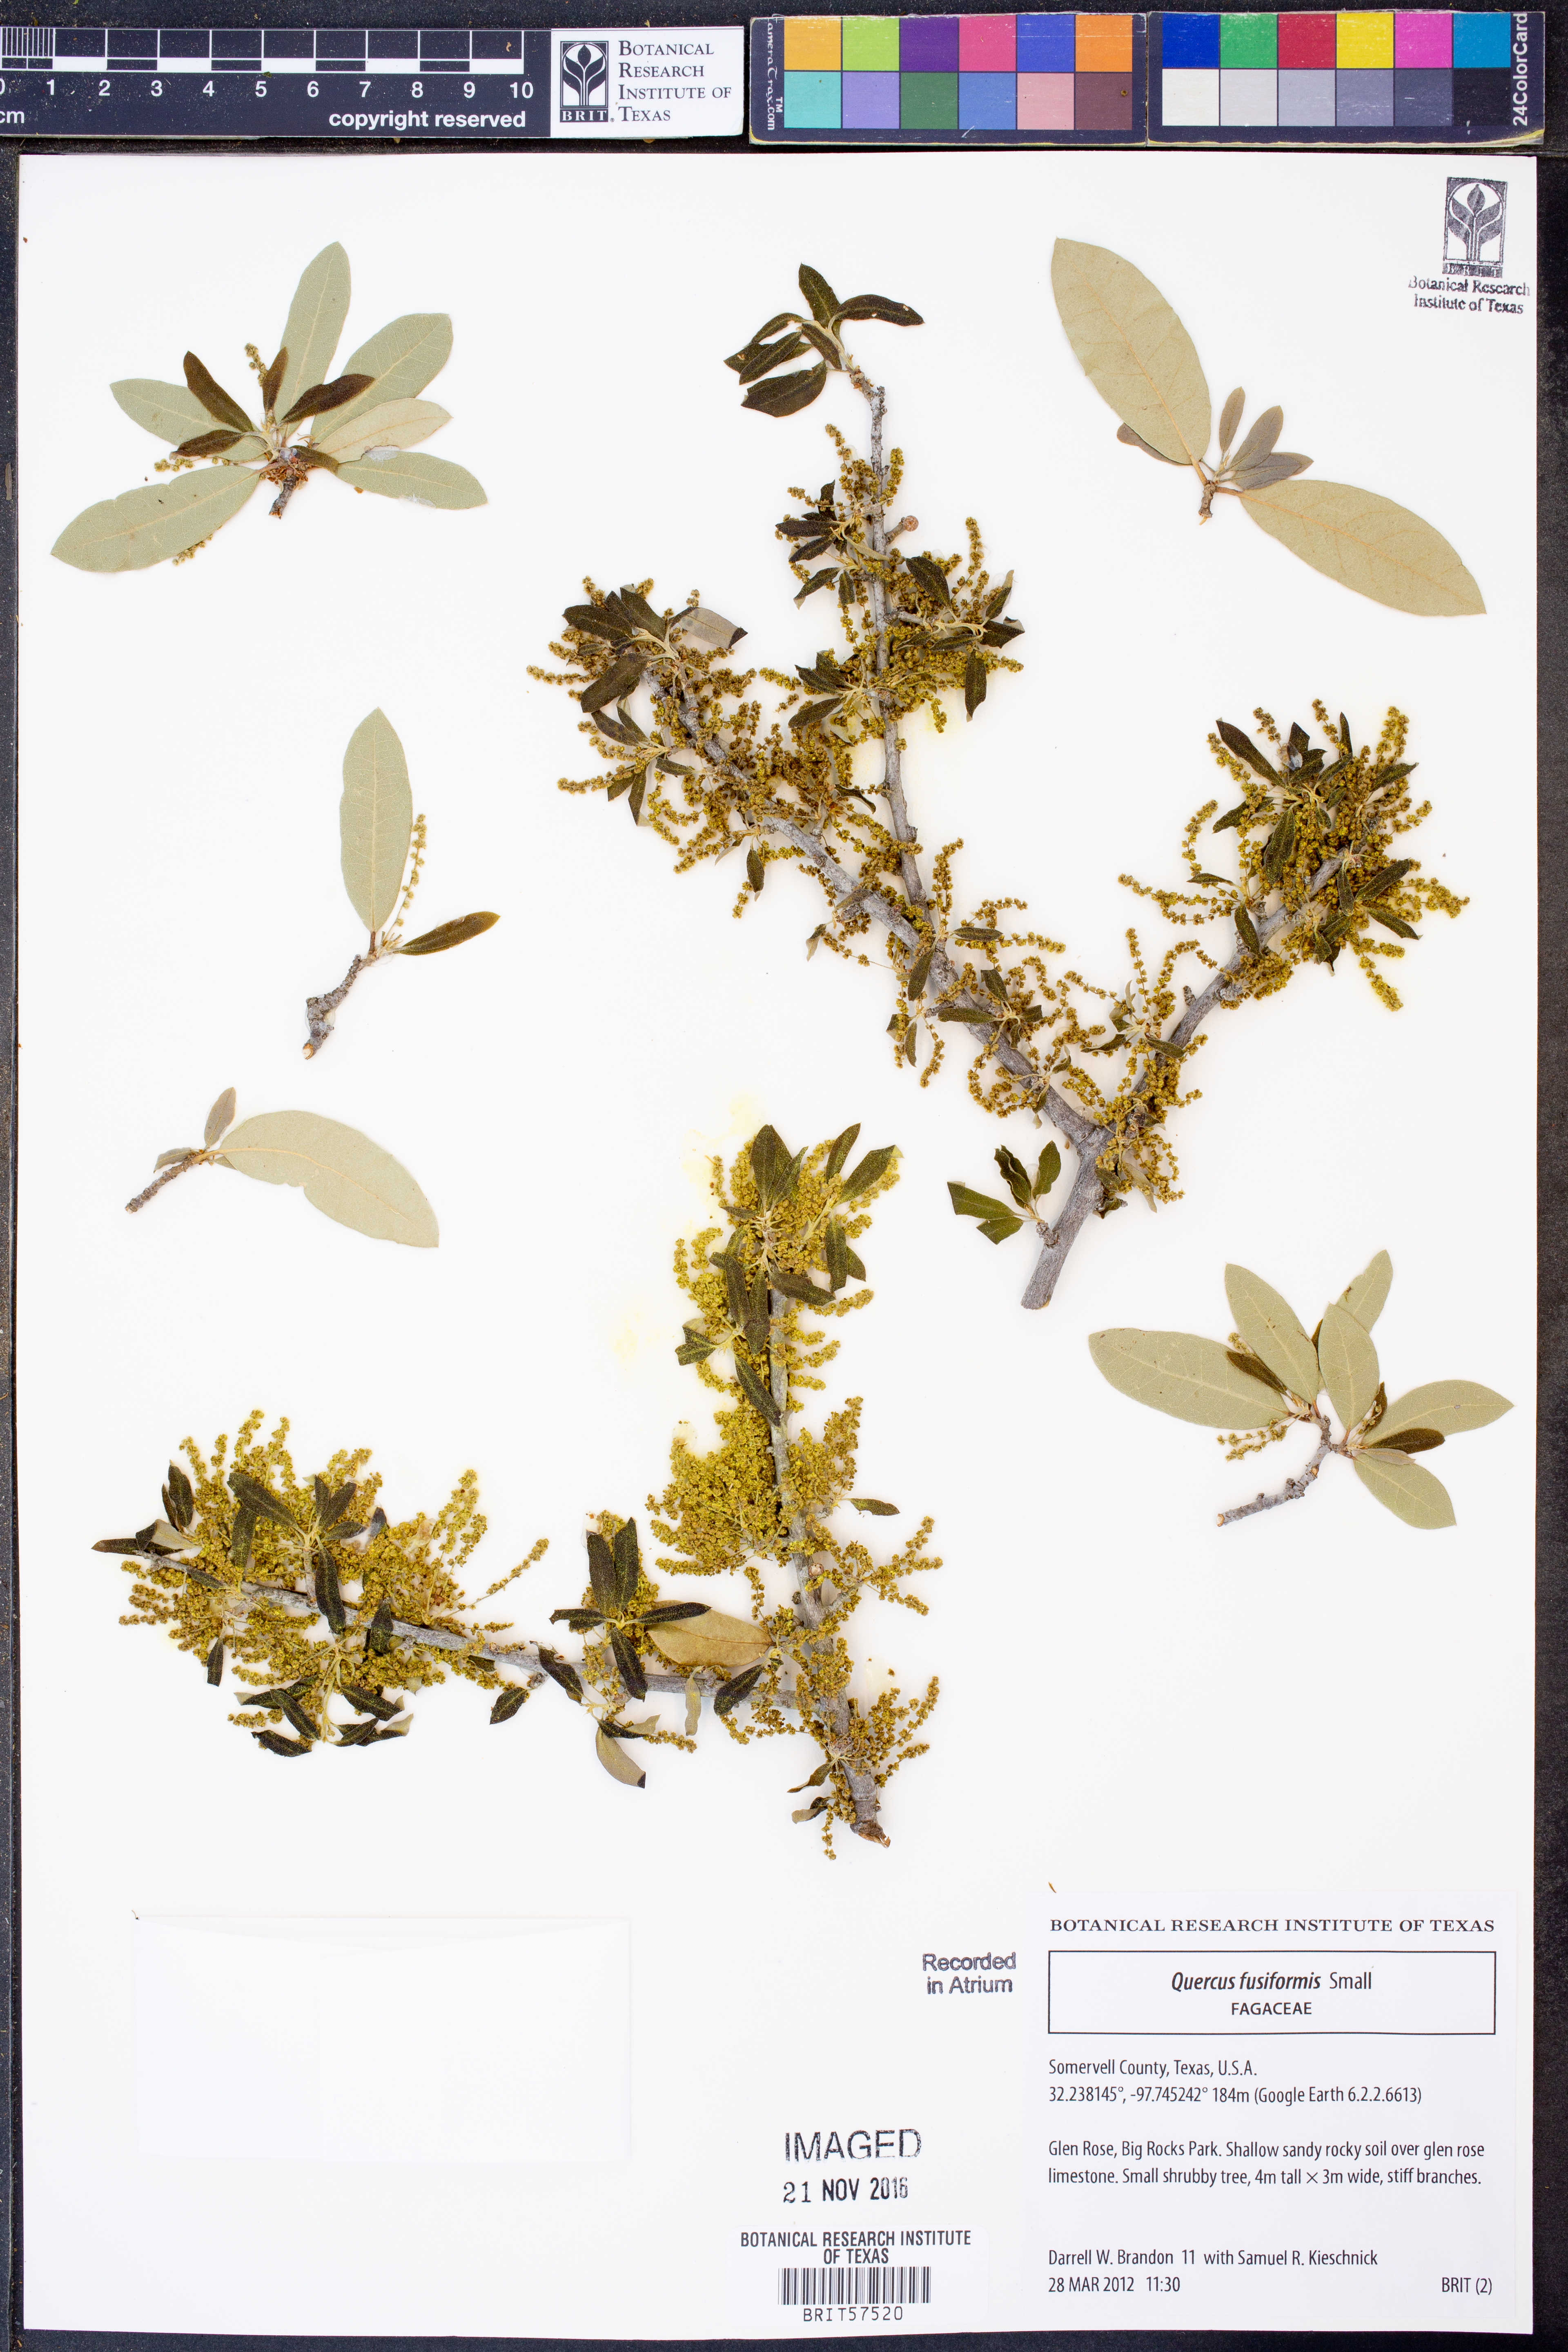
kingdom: Plantae
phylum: Tracheophyta
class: Magnoliopsida
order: Fagales
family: Fagaceae
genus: Quercus
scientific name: Quercus fusiformis
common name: Texas live oak
